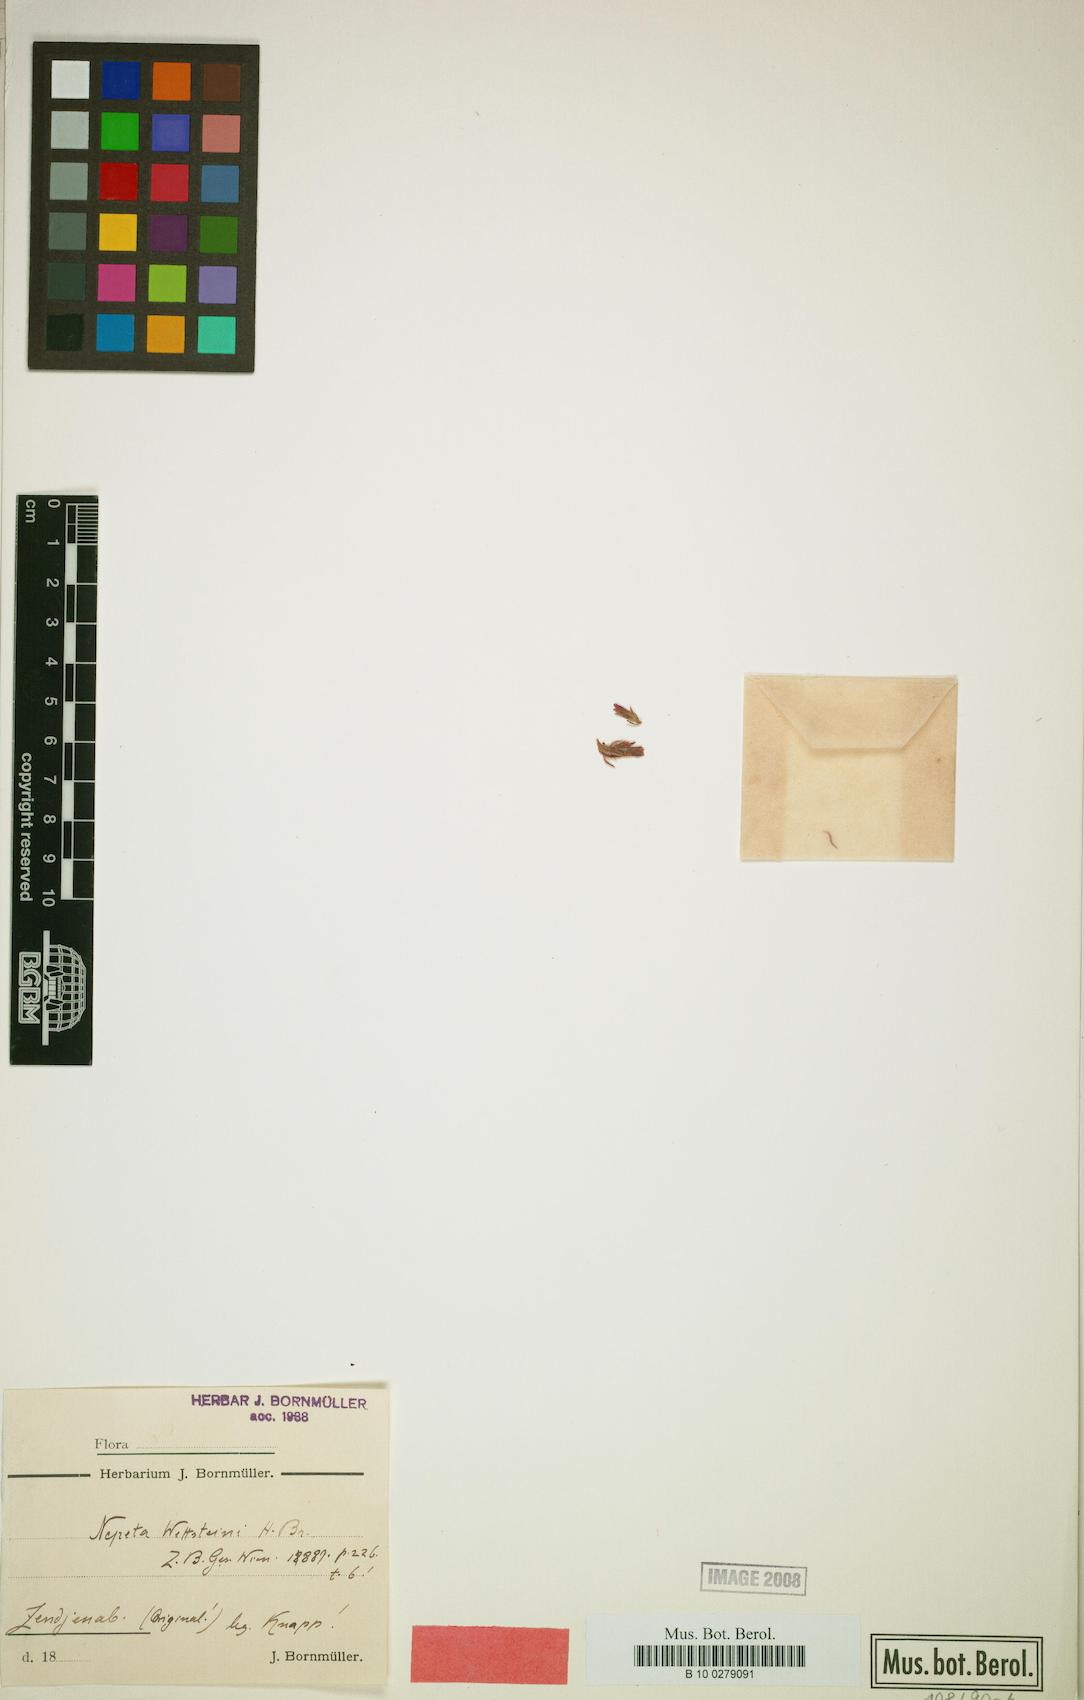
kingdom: Plantae
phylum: Tracheophyta
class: Magnoliopsida
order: Lamiales
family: Lamiaceae
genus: Nepeta
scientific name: Nepeta wettsteinii
